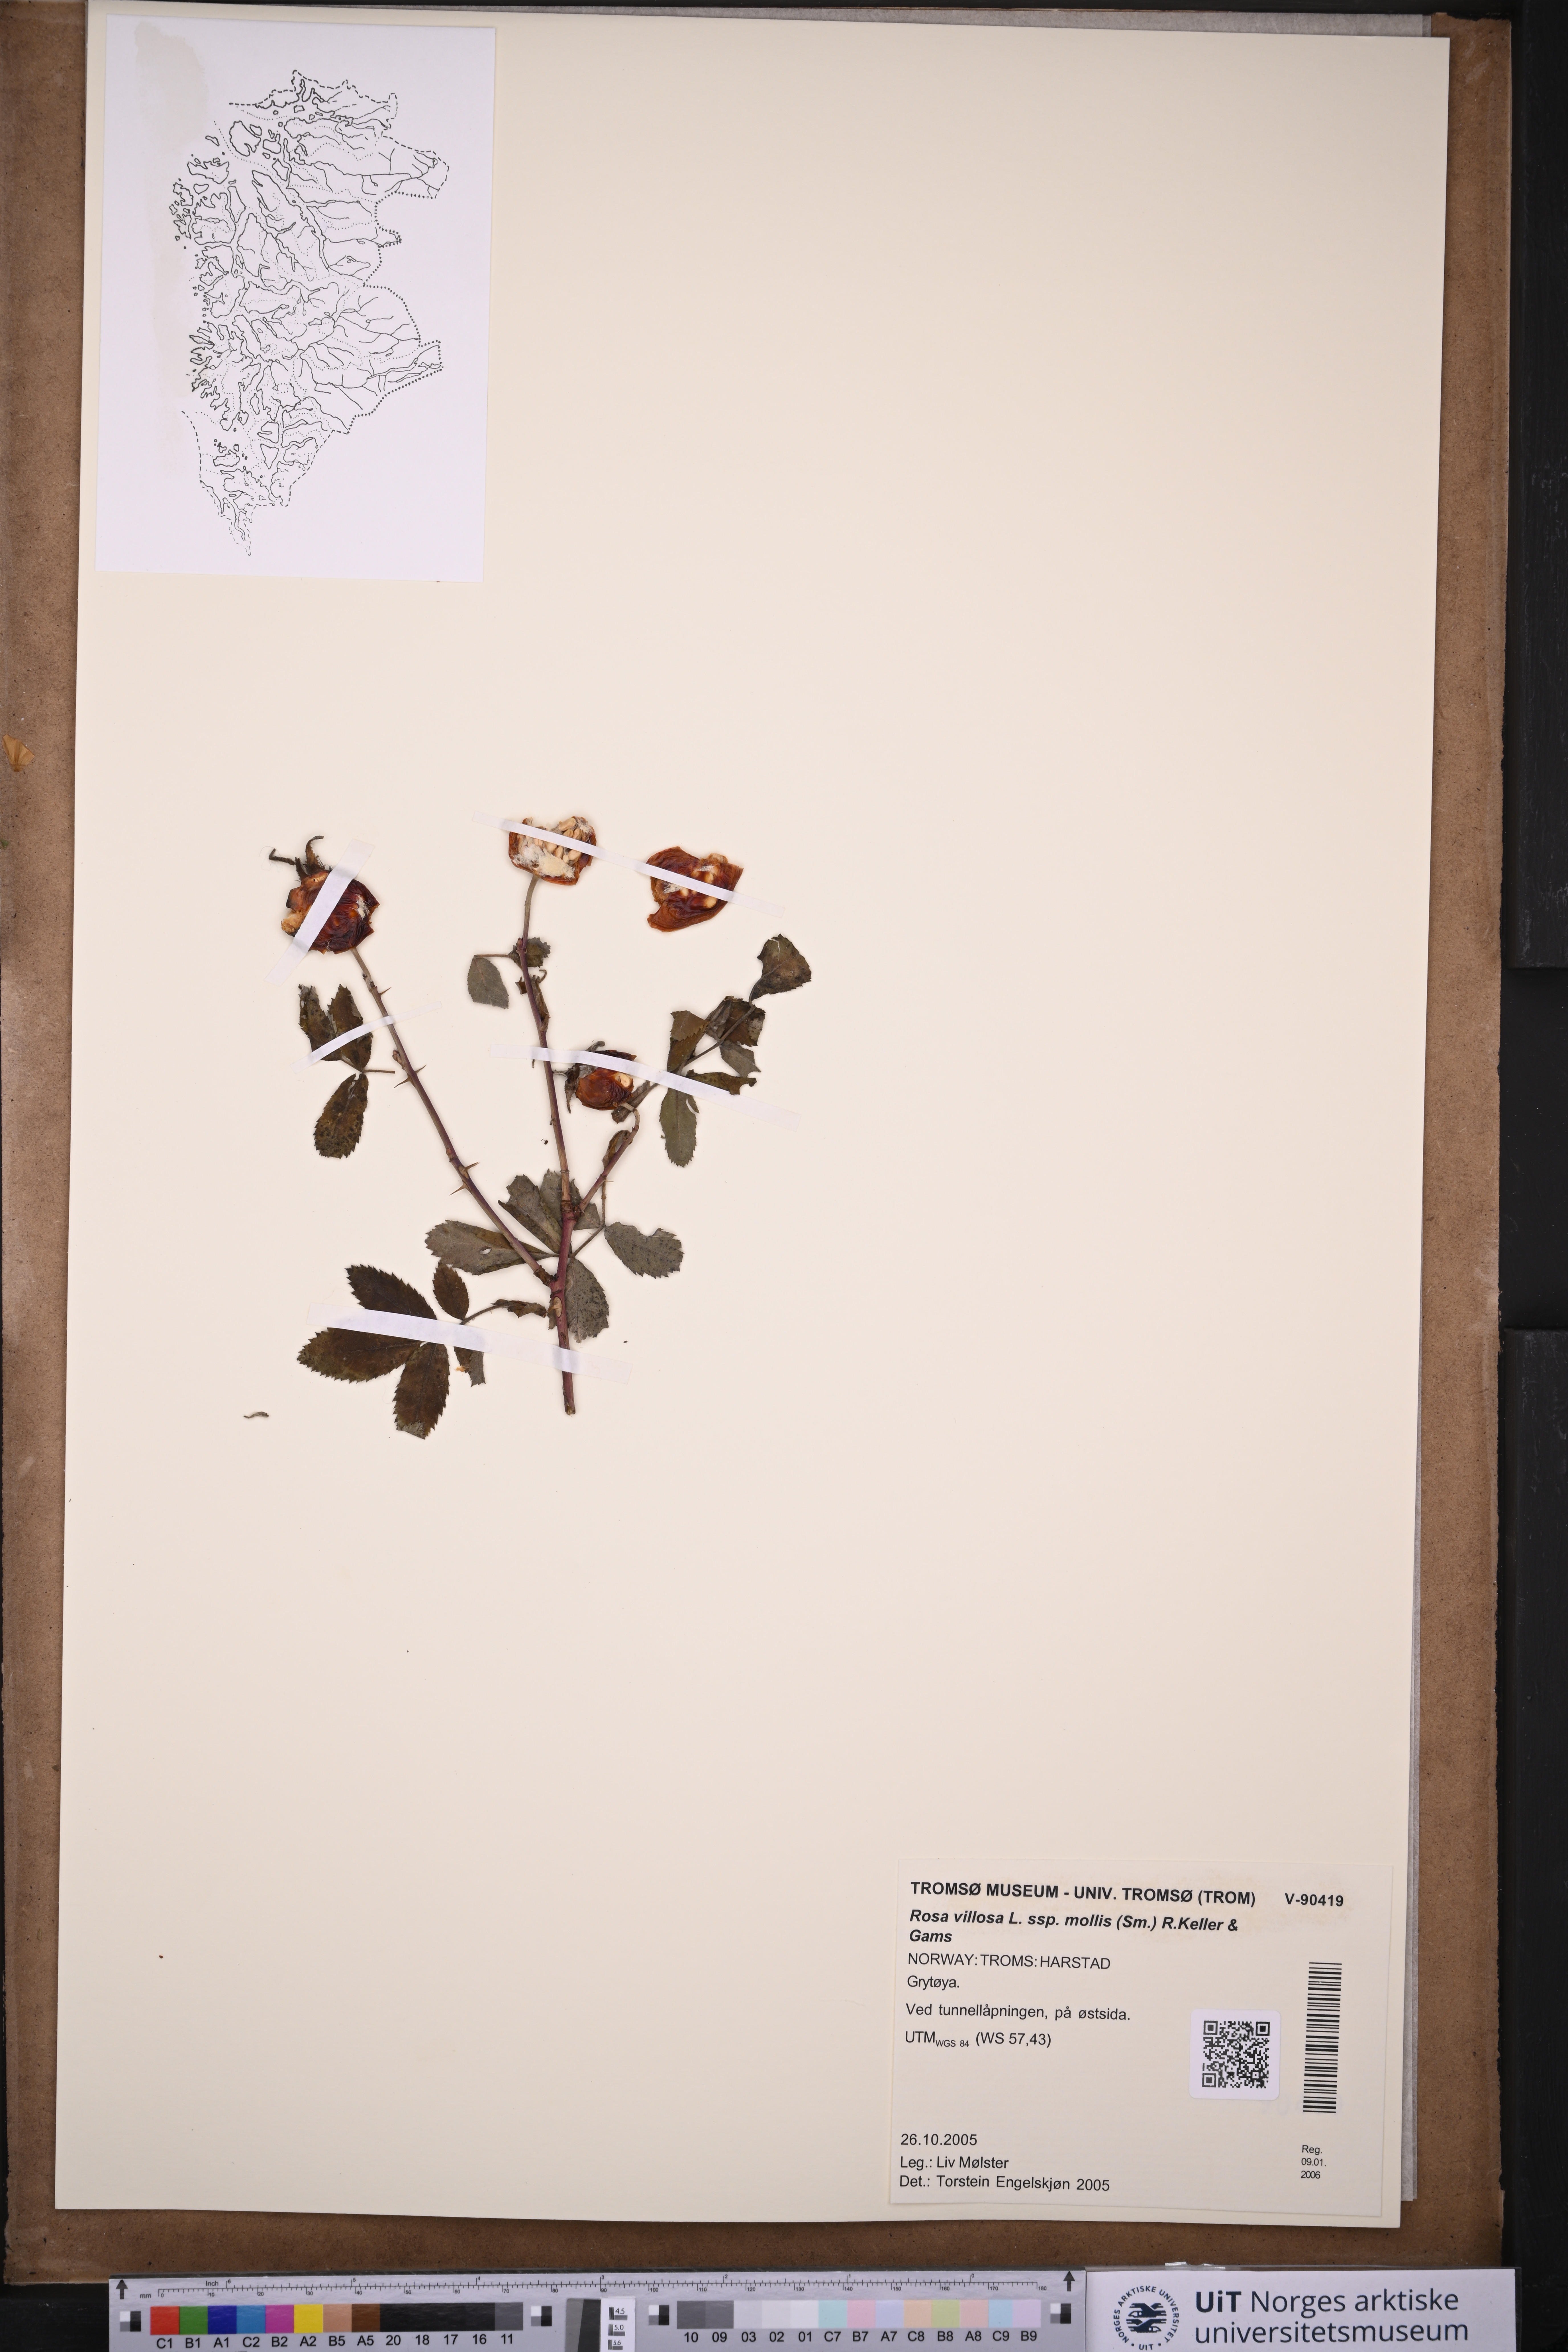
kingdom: Plantae
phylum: Tracheophyta
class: Magnoliopsida
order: Rosales
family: Rosaceae
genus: Rosa
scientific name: Rosa mollis
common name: Rose
